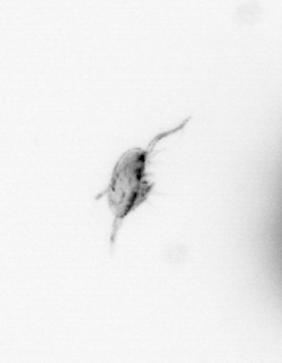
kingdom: Animalia
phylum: Arthropoda
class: Copepoda
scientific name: Copepoda
